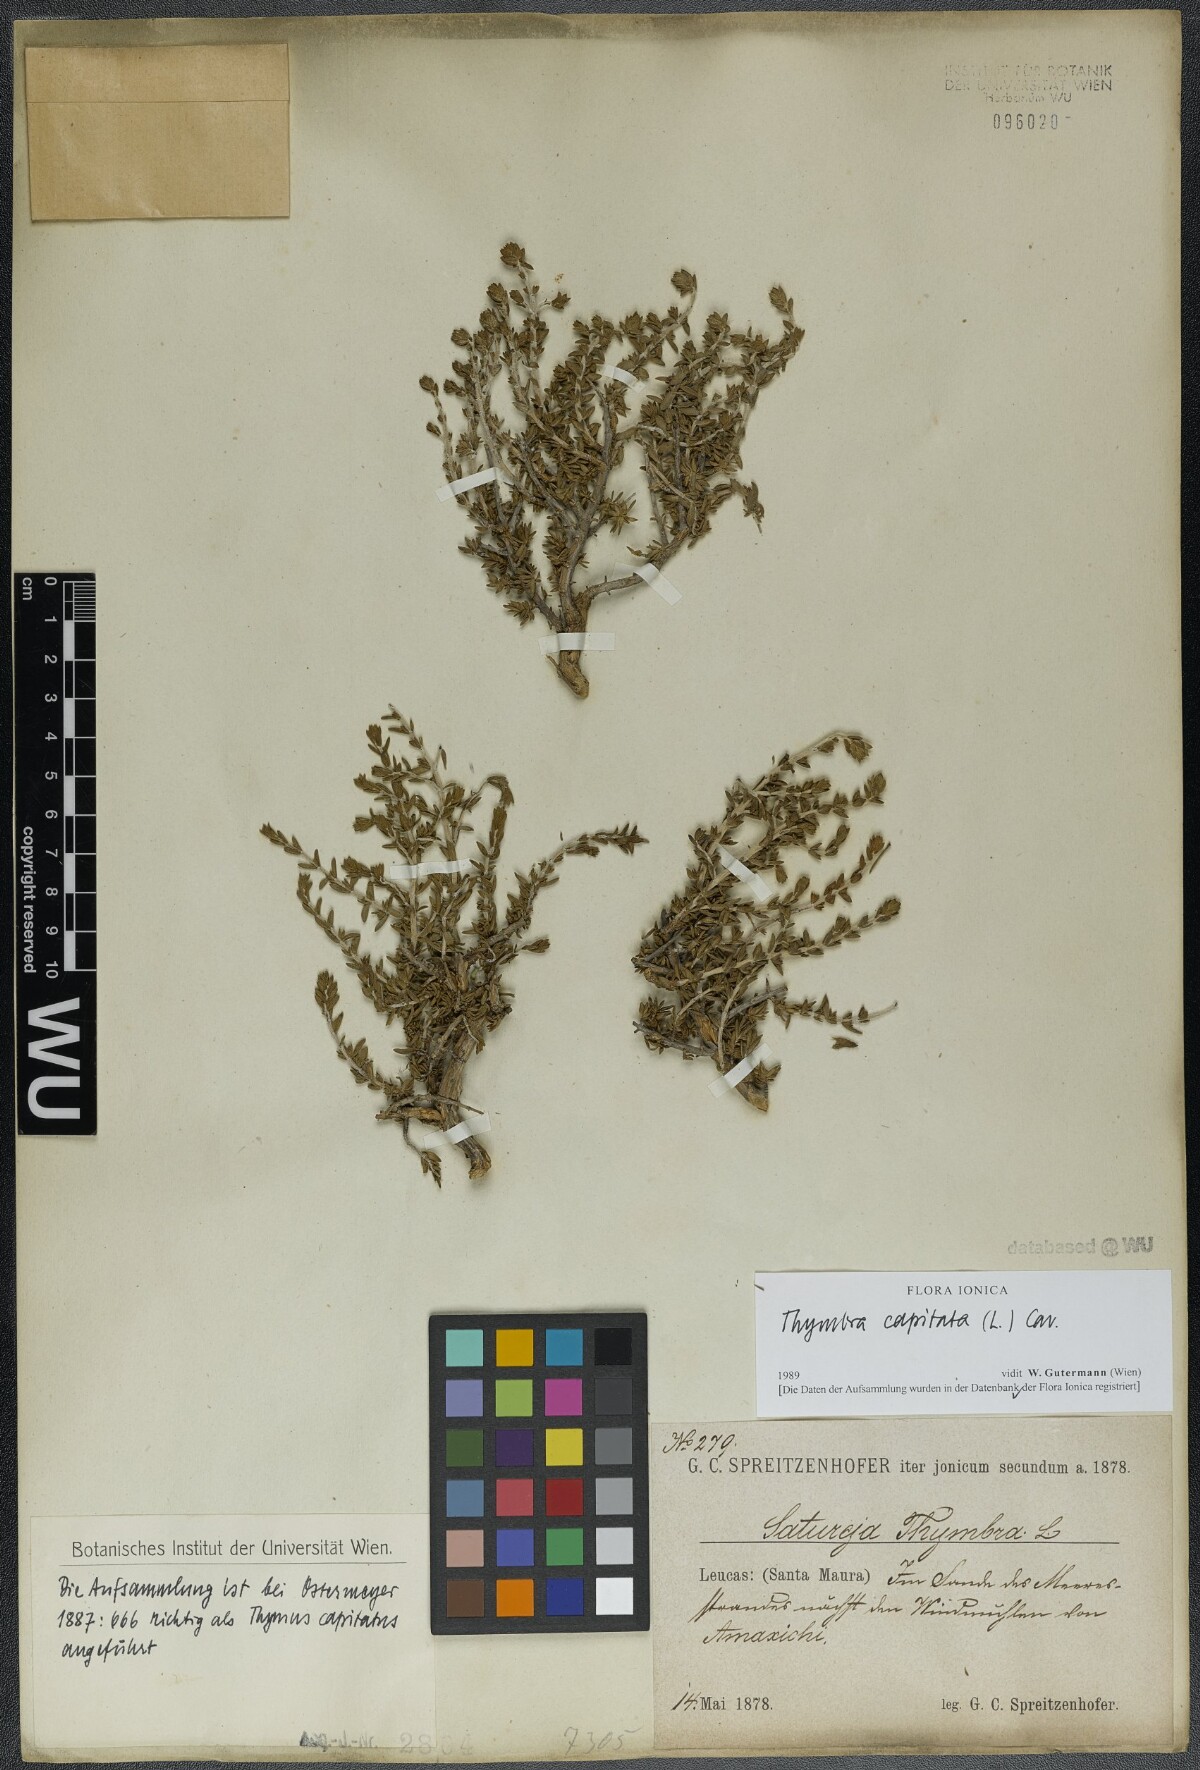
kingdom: Plantae
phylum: Tracheophyta
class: Magnoliopsida
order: Lamiales
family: Lamiaceae
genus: Thymbra
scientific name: Thymbra capitata
